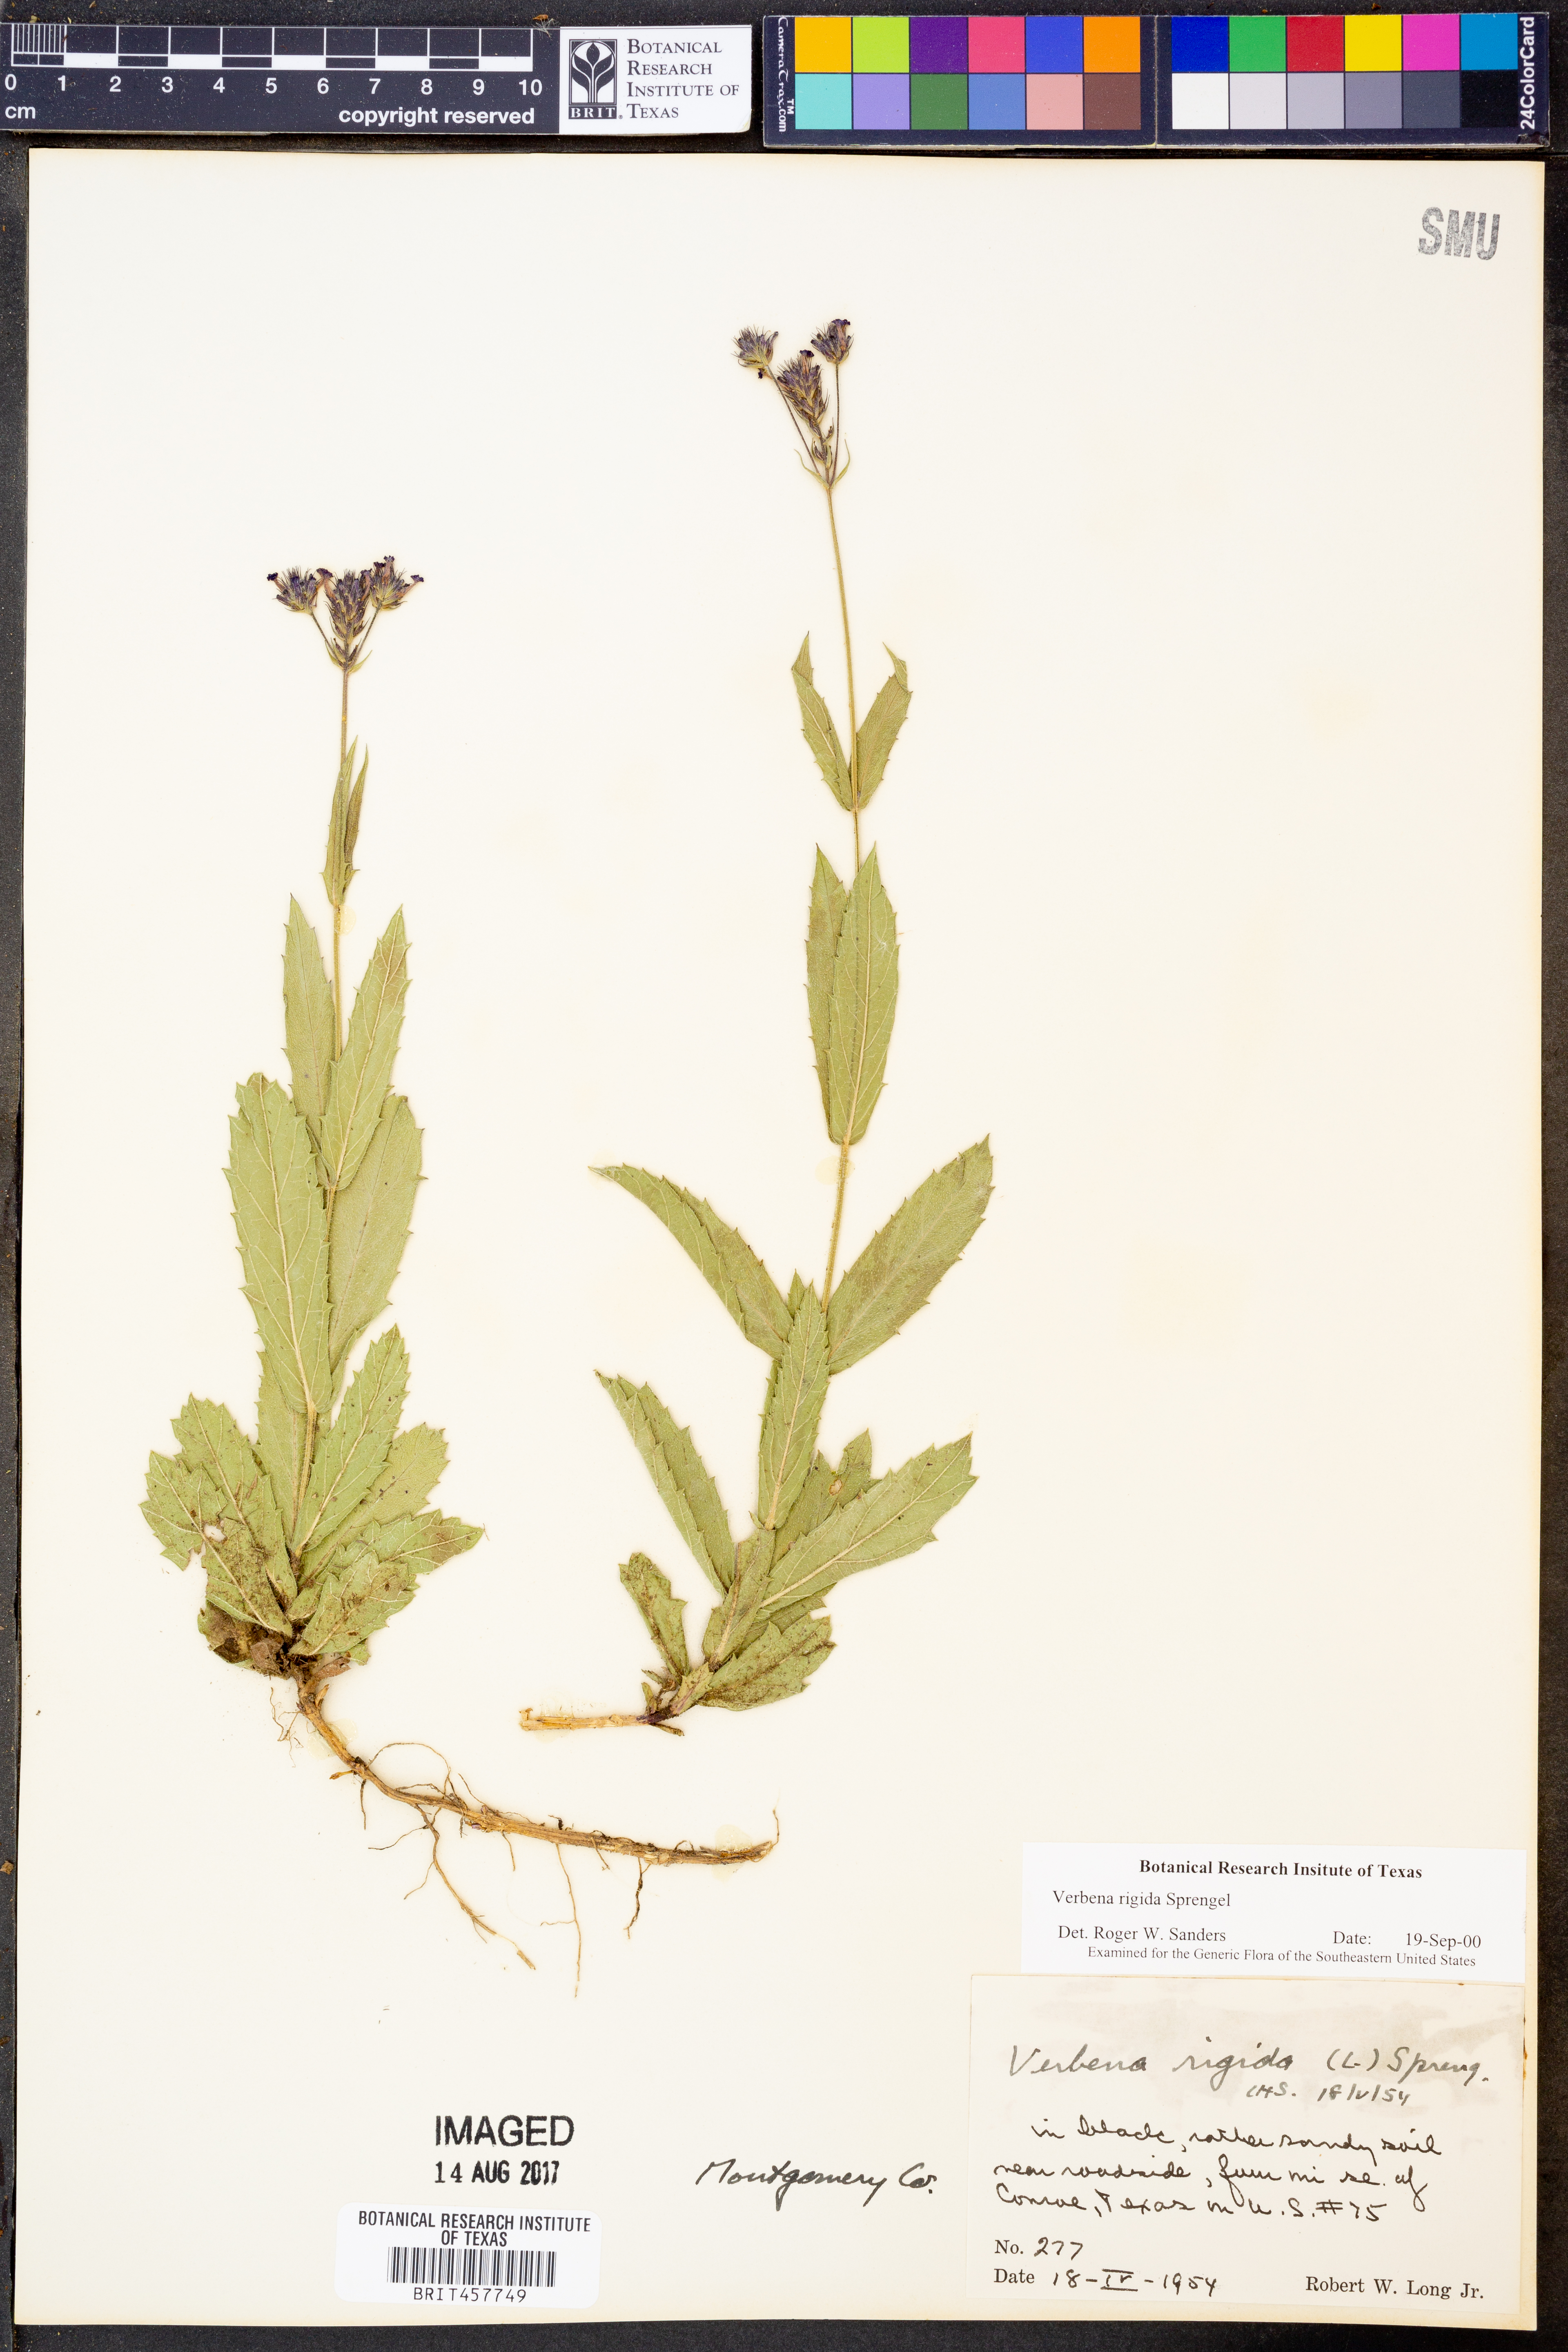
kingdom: Plantae
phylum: Tracheophyta
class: Magnoliopsida
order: Lamiales
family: Verbenaceae
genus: Verbena
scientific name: Verbena rigida
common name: Slender vervain
